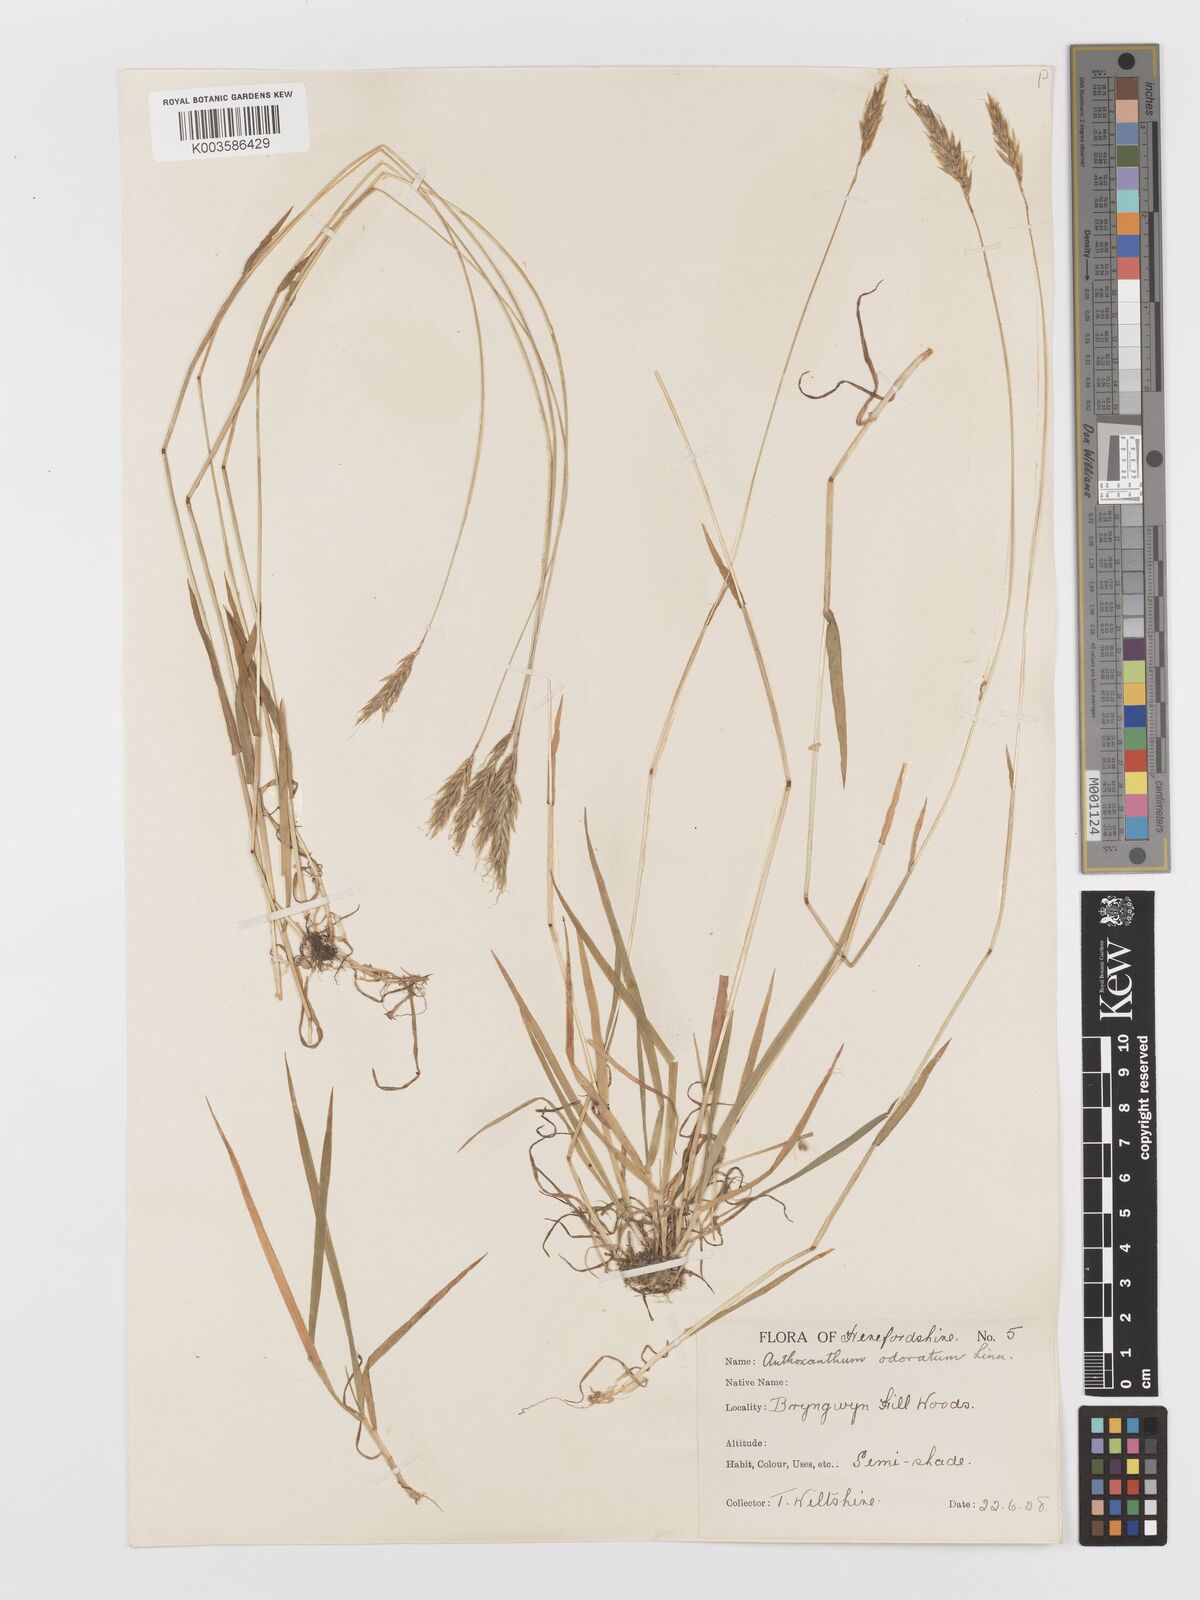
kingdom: Plantae
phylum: Tracheophyta
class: Liliopsida
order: Poales
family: Poaceae
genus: Anthoxanthum
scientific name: Anthoxanthum odoratum
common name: Sweet vernalgrass
